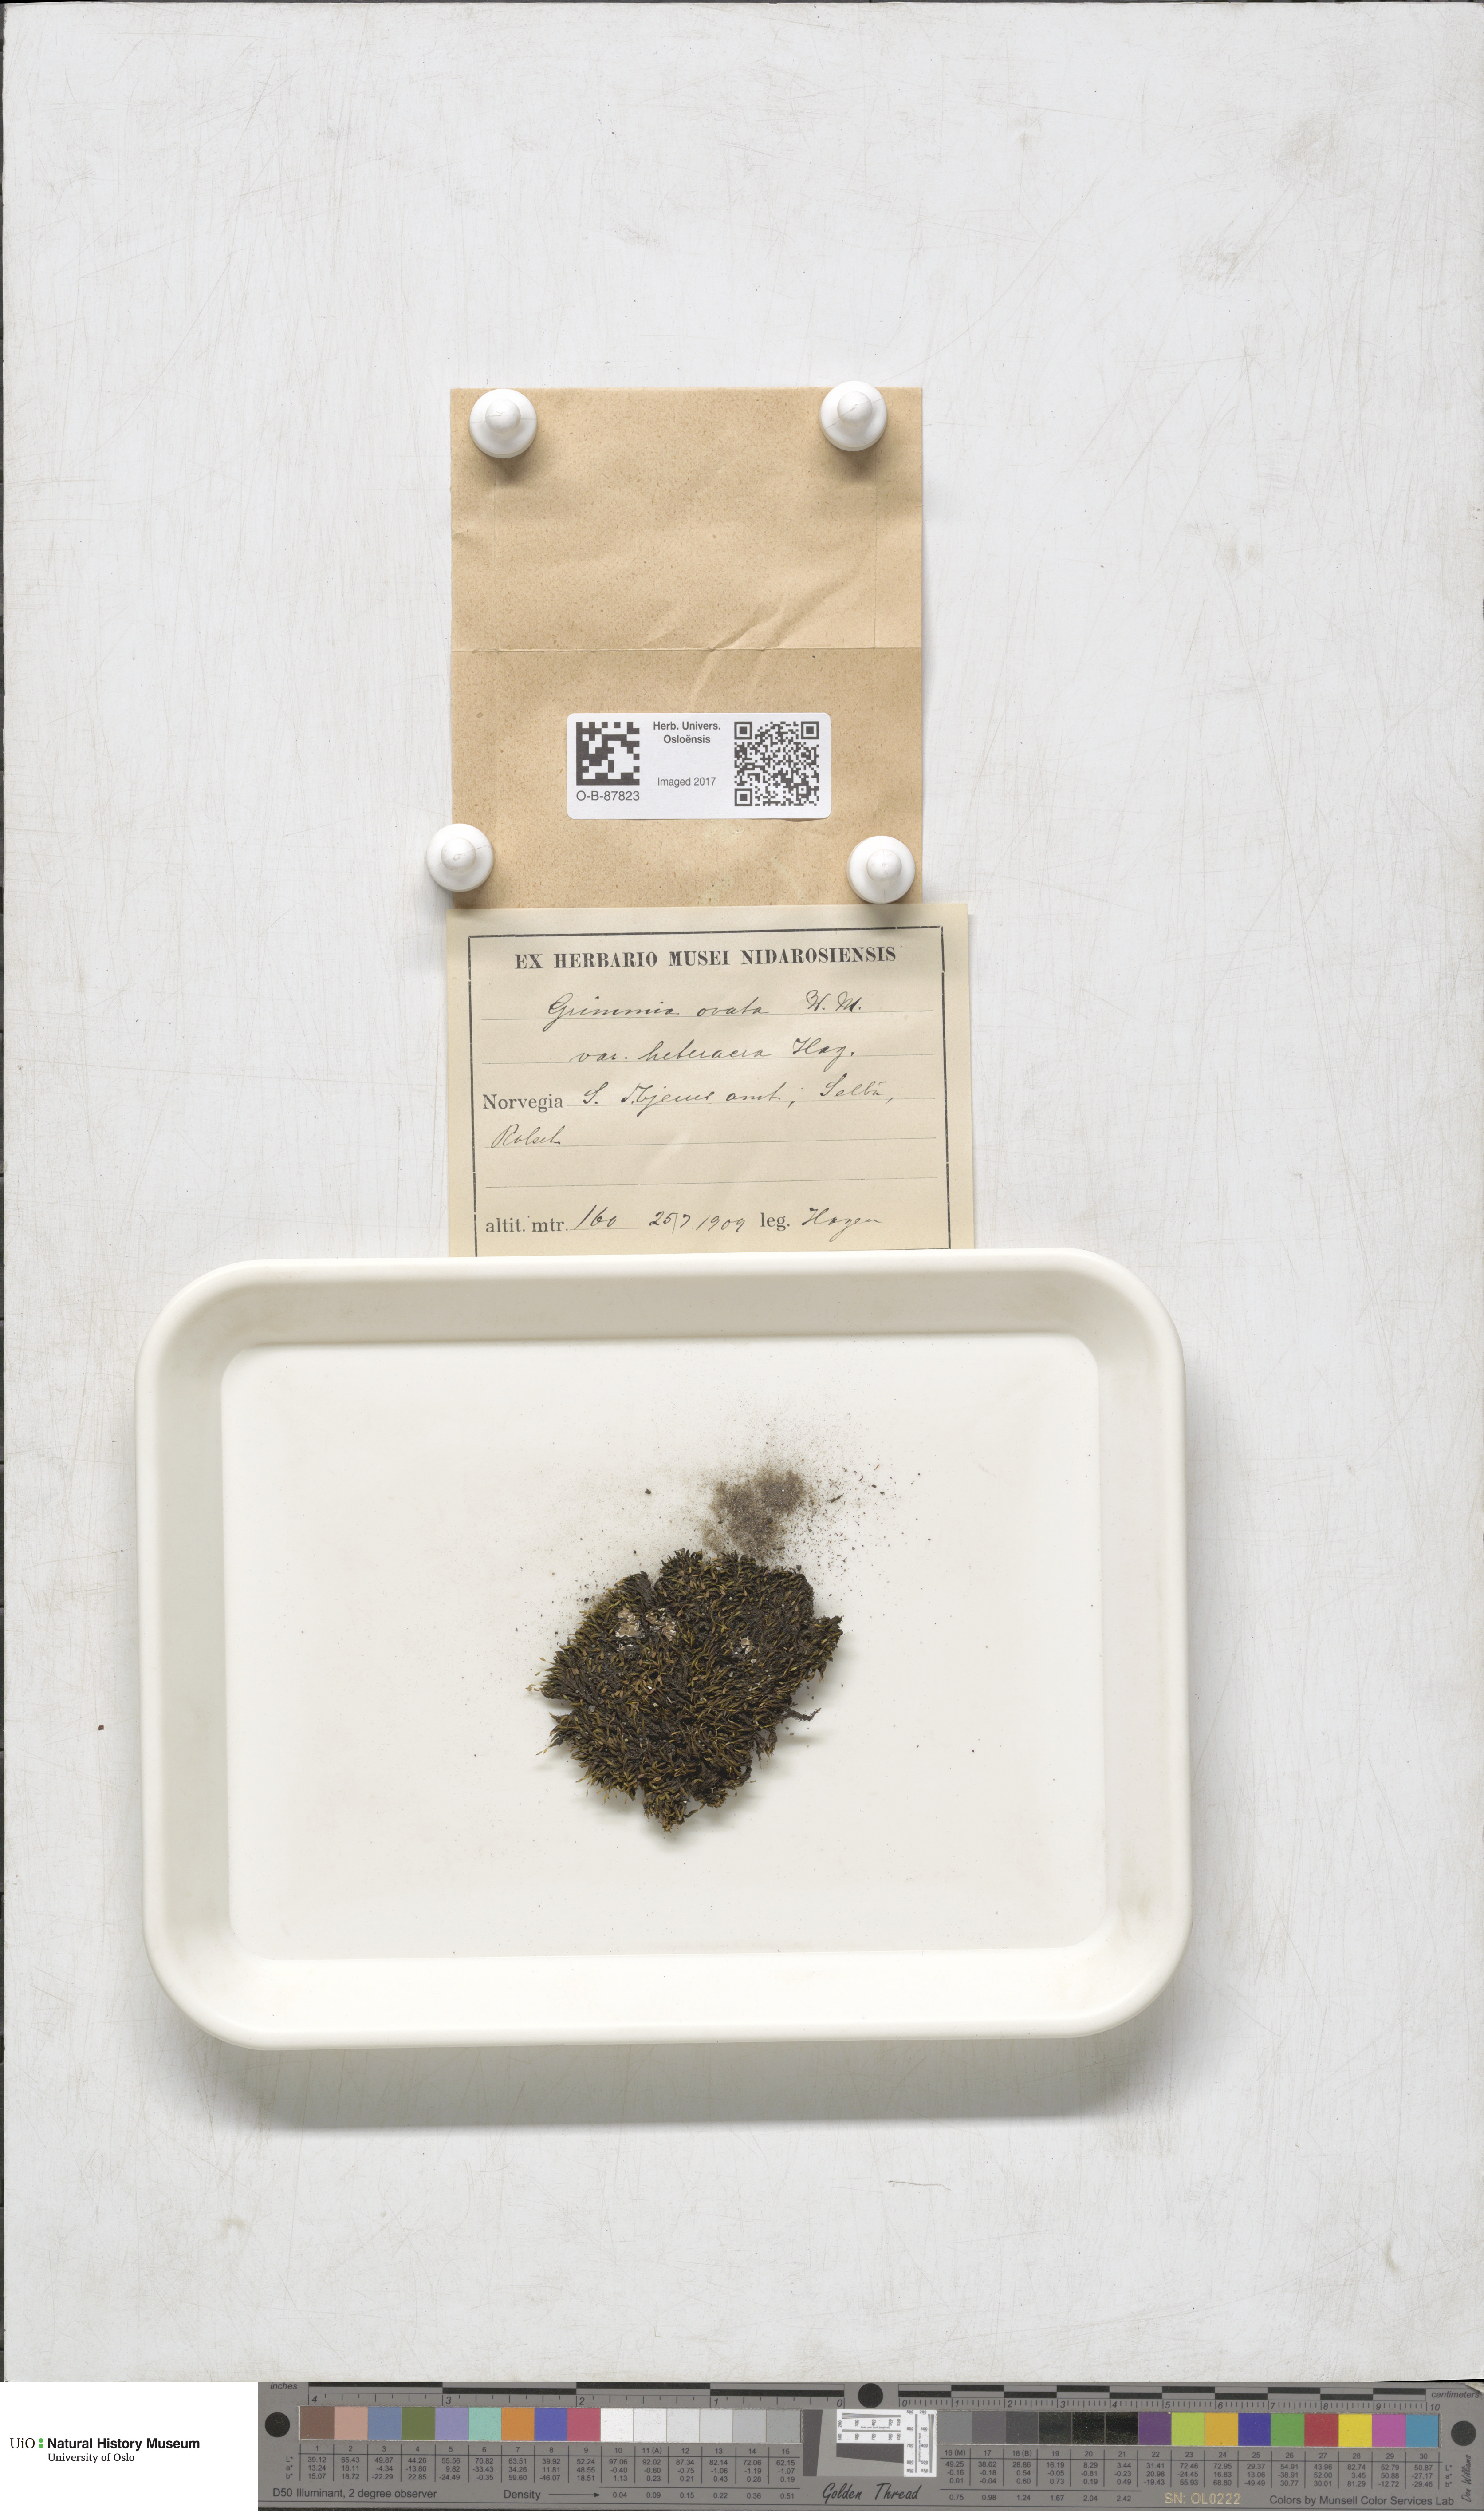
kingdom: Plantae
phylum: Bryophyta
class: Bryopsida
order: Grimmiales
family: Grimmiaceae
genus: Grimmia
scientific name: Grimmia ovalis
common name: Oval grimmia
